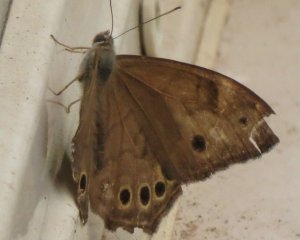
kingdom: Animalia
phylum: Arthropoda
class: Insecta
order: Lepidoptera
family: Nymphalidae
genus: Lethe
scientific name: Lethe
